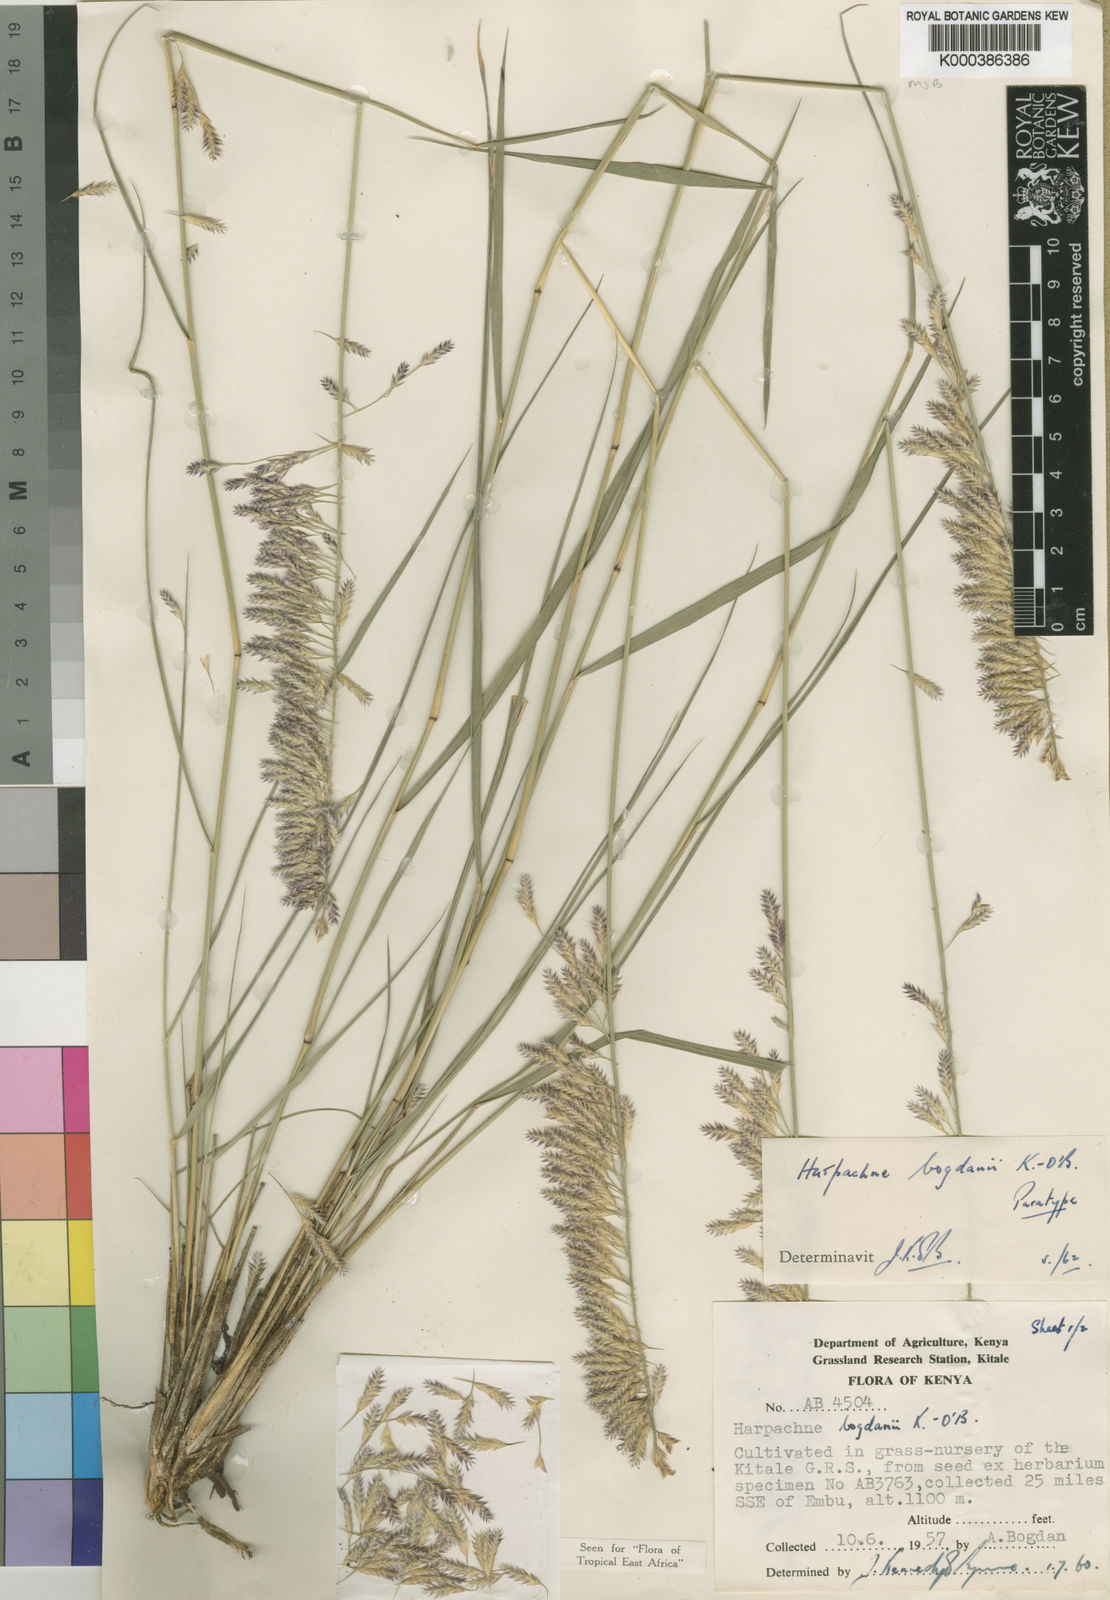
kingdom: Plantae
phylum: Tracheophyta
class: Liliopsida
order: Poales
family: Poaceae
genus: Harpachne
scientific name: Harpachne bogdanii
